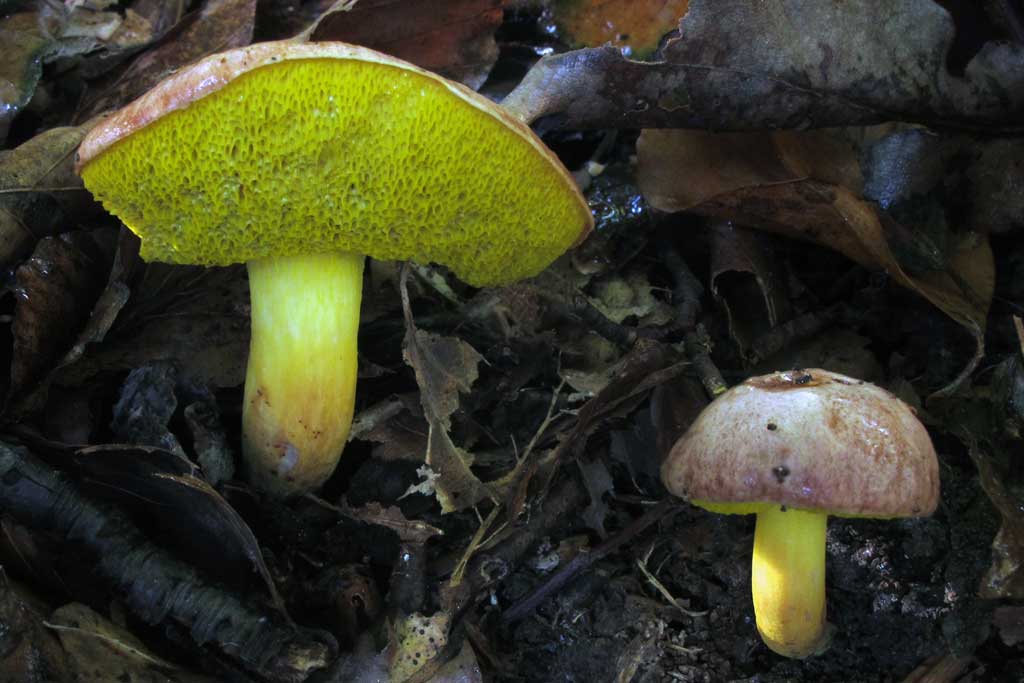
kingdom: Fungi
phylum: Basidiomycota
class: Agaricomycetes
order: Boletales
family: Boletaceae
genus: Aureoboletus
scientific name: Aureoboletus gentilis
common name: guldrørhat
